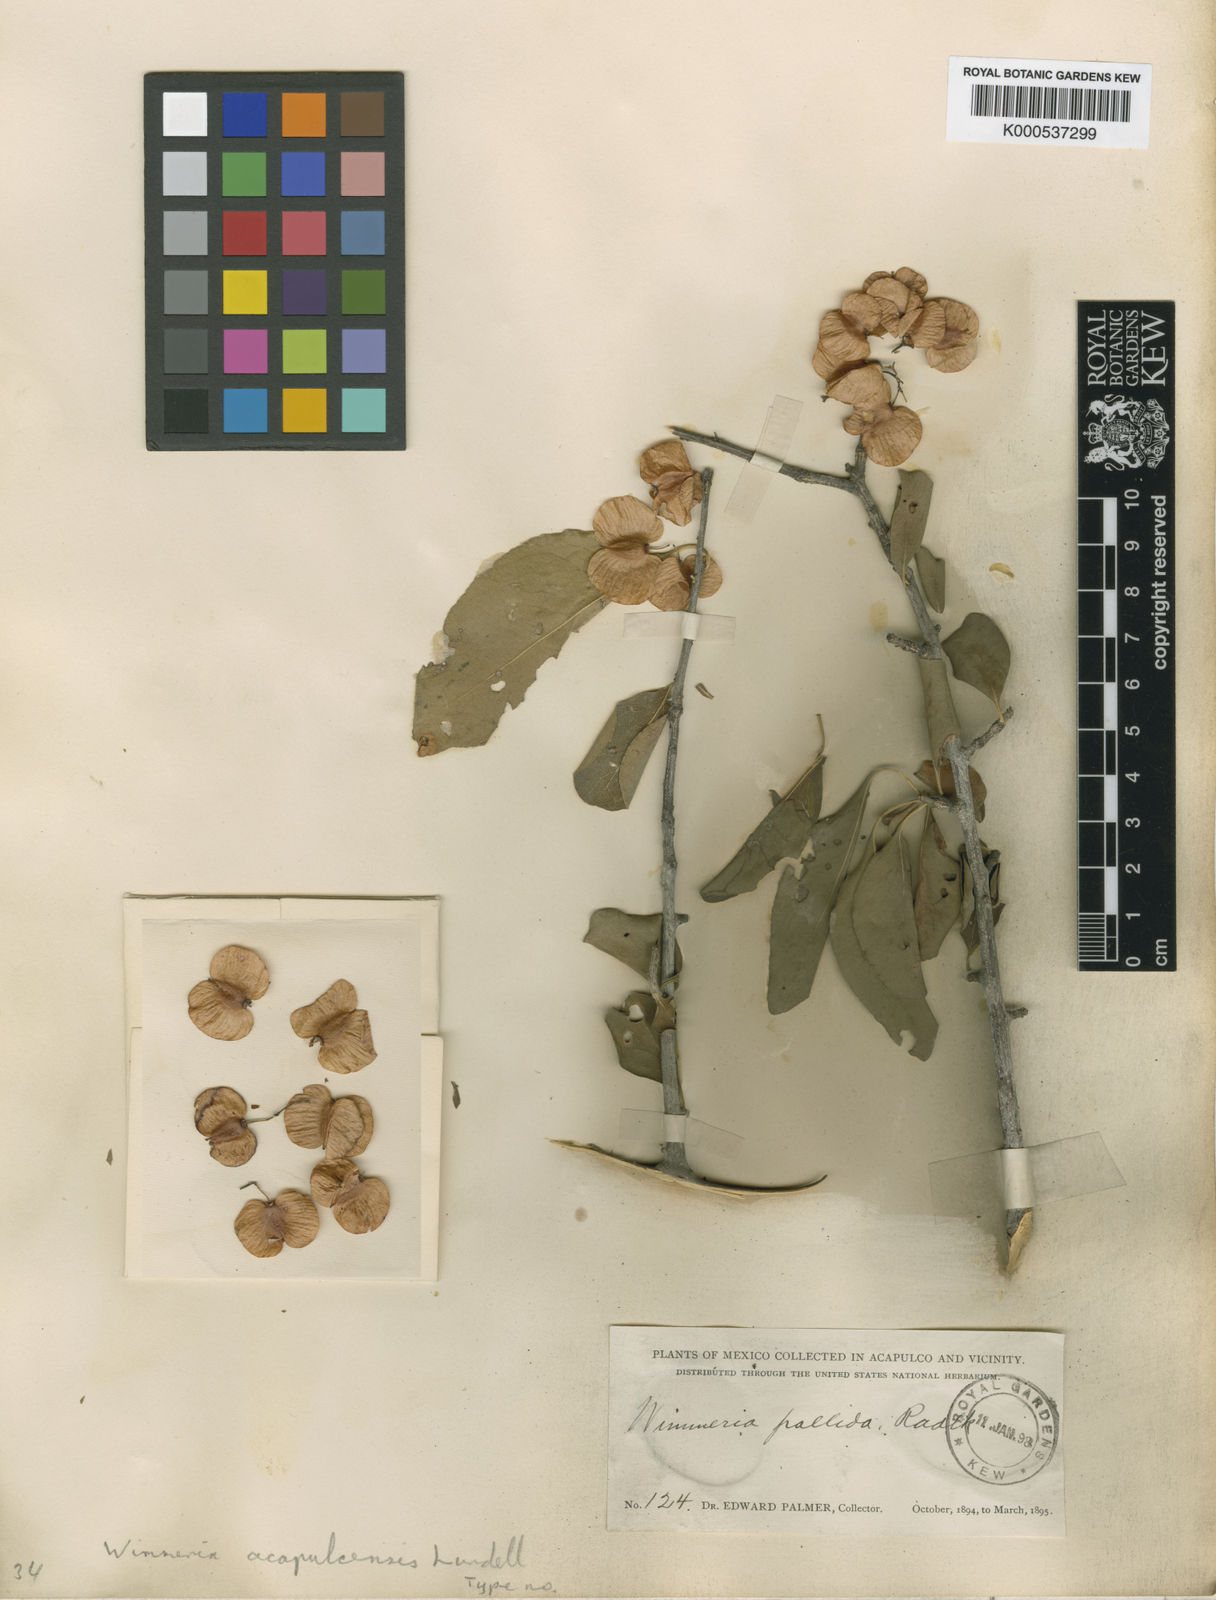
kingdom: Plantae
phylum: Tracheophyta
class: Magnoliopsida
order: Celastrales
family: Celastraceae
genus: Wimmeria
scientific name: Wimmeria confusa
